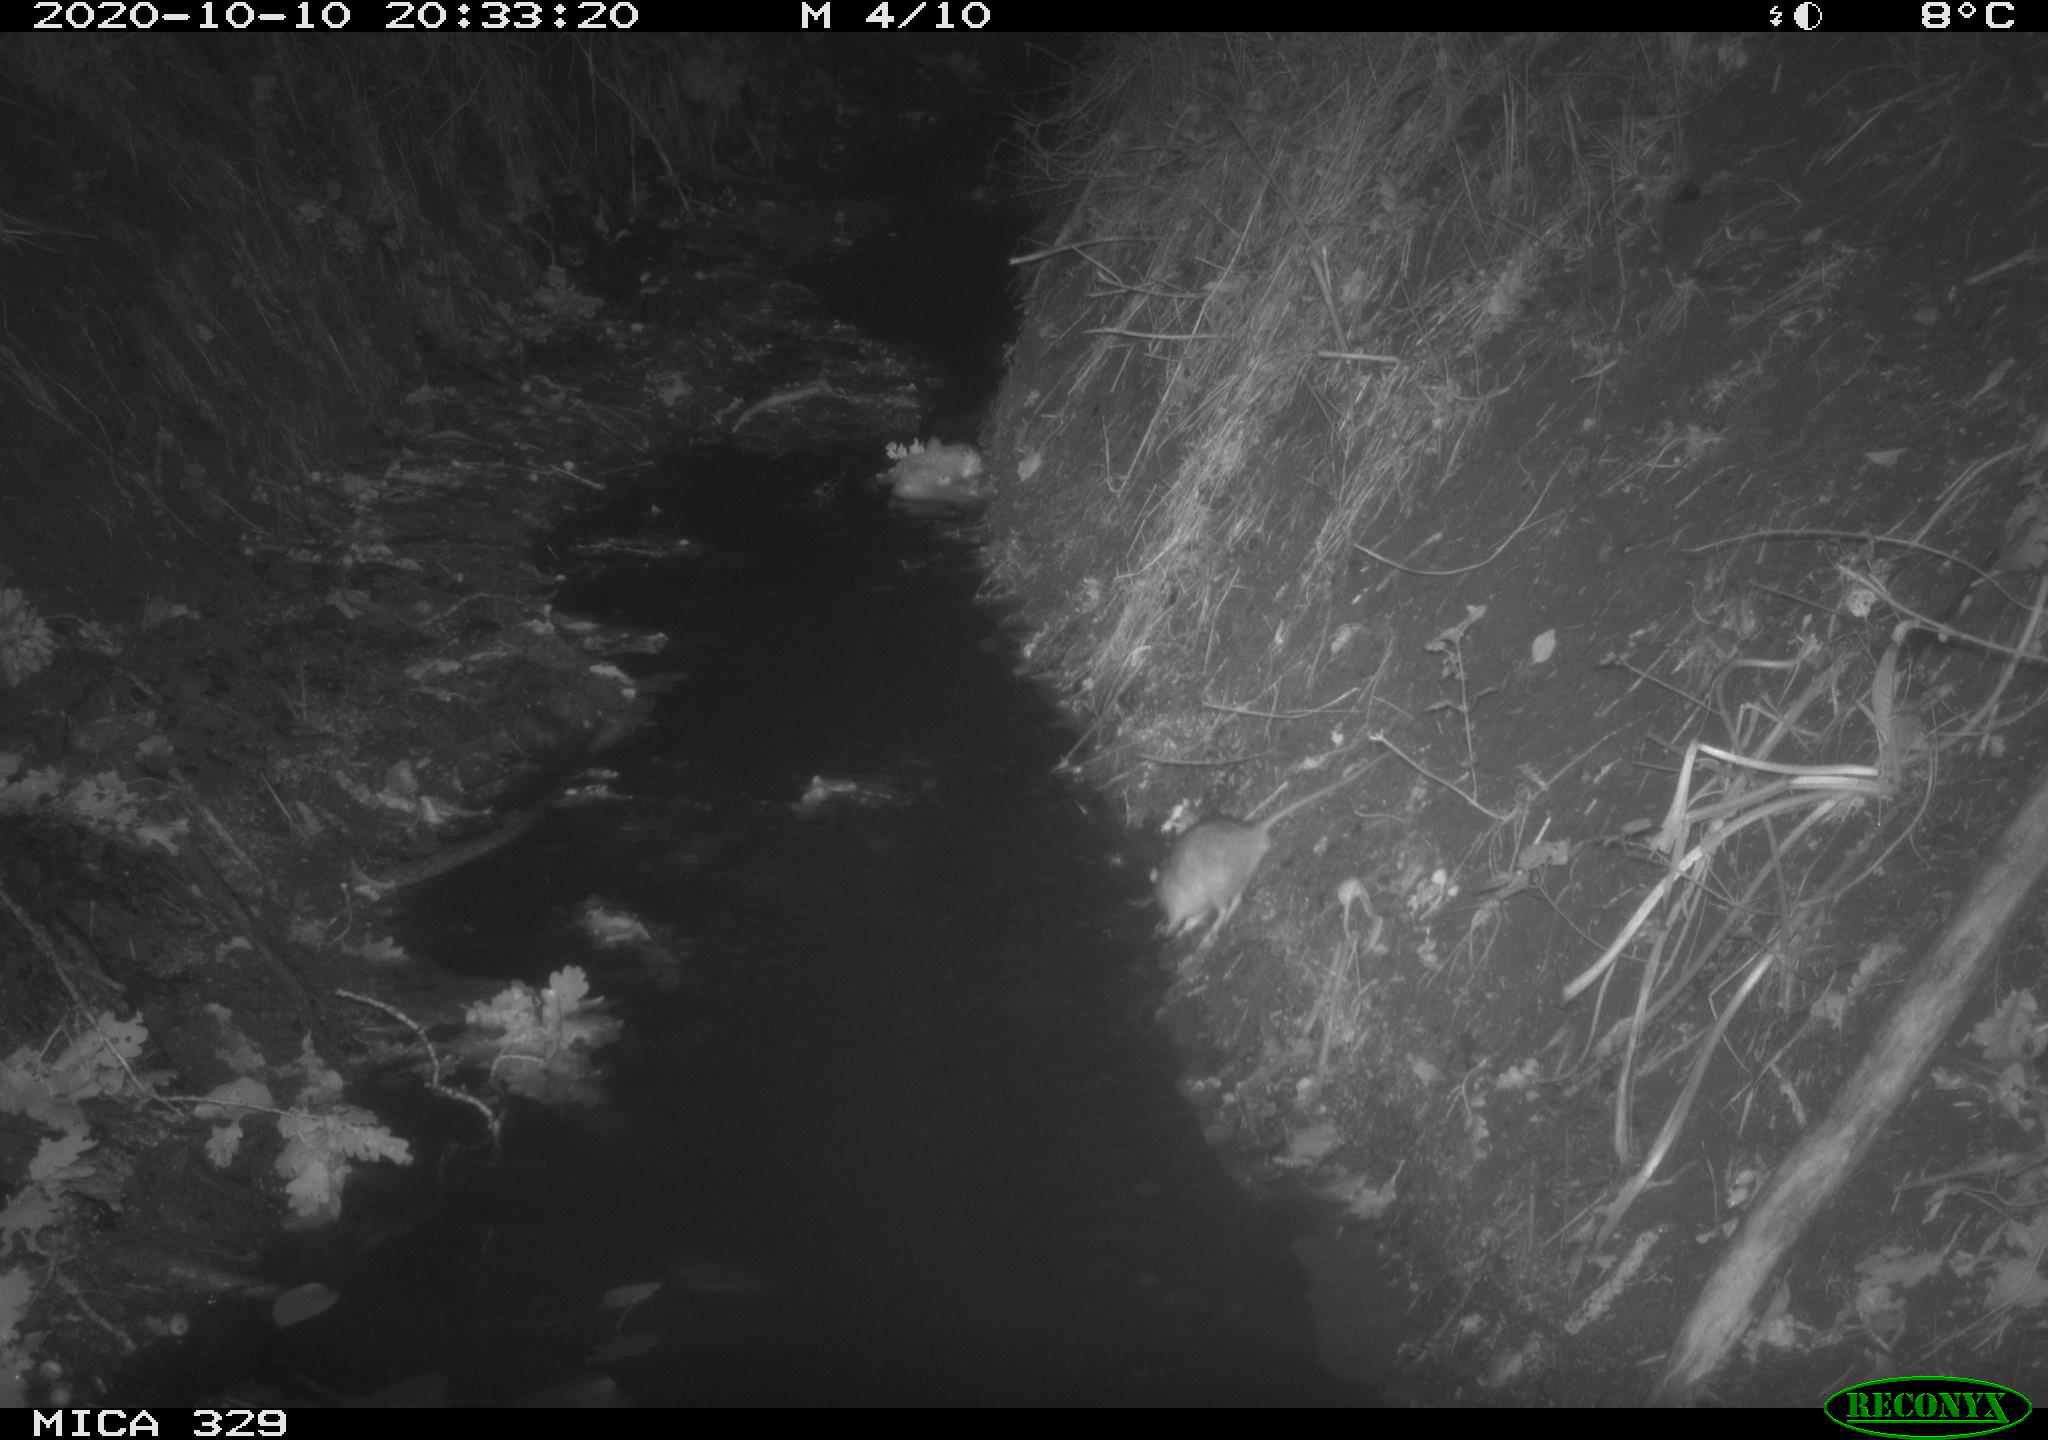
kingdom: Animalia
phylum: Chordata
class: Mammalia
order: Rodentia
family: Muridae
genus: Rattus
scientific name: Rattus norvegicus
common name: Brown rat
